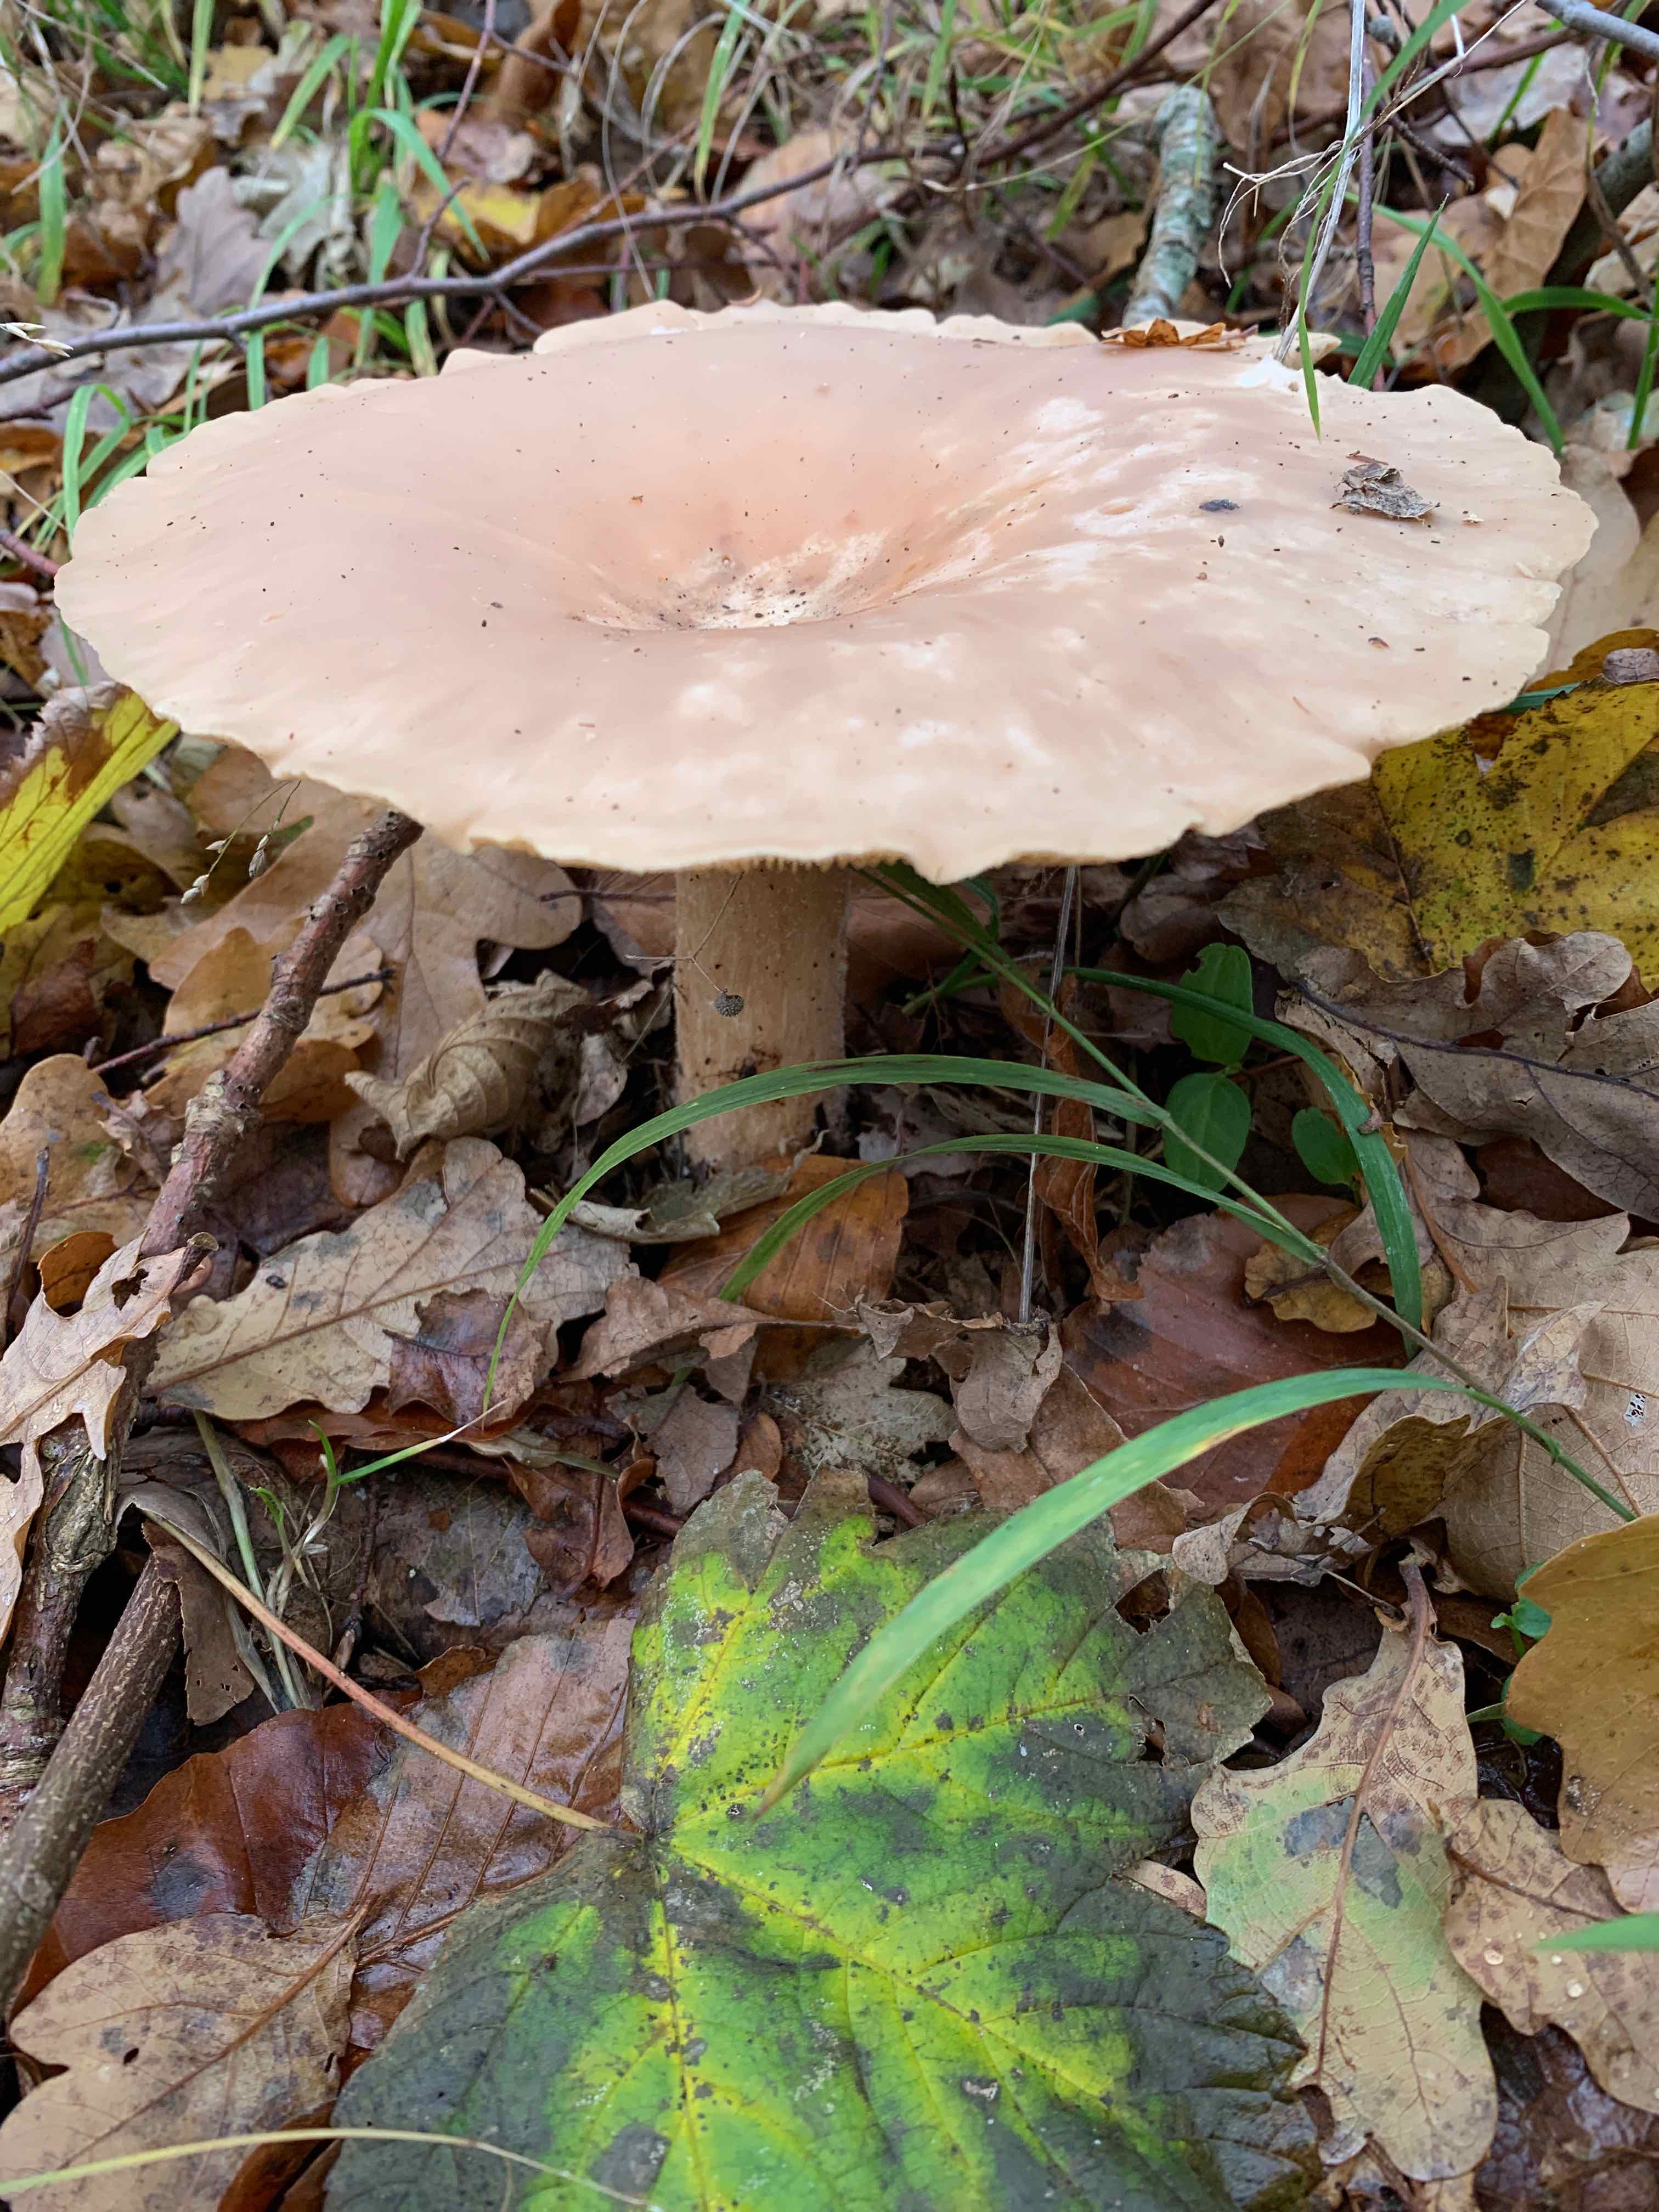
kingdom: Fungi
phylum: Basidiomycota
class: Agaricomycetes
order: Agaricales
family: Tricholomataceae
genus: Infundibulicybe
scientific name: Infundibulicybe geotropa
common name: stor tragthat
